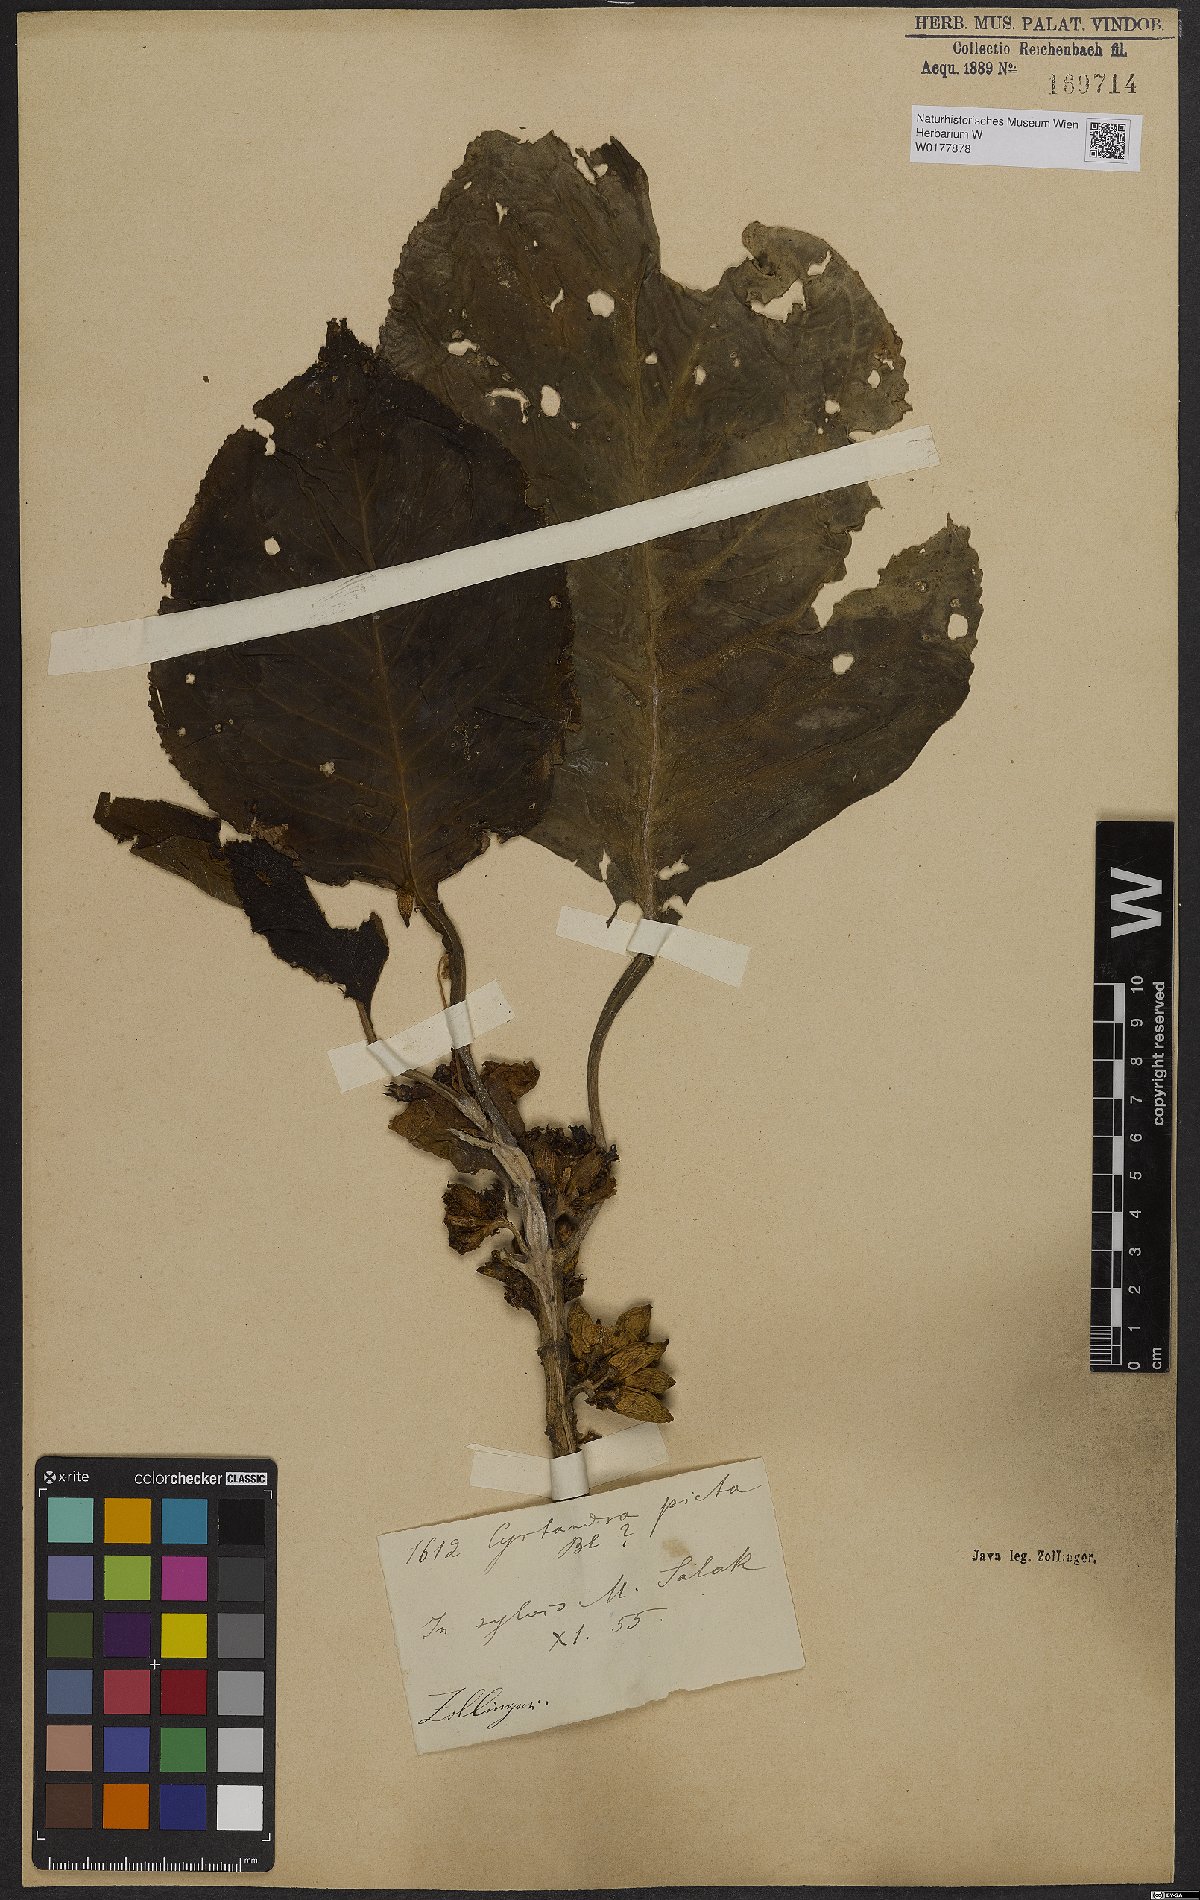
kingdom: Plantae
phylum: Tracheophyta
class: Magnoliopsida
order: Lamiales
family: Gesneriaceae
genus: Cyrtandra
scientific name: Cyrtandra
